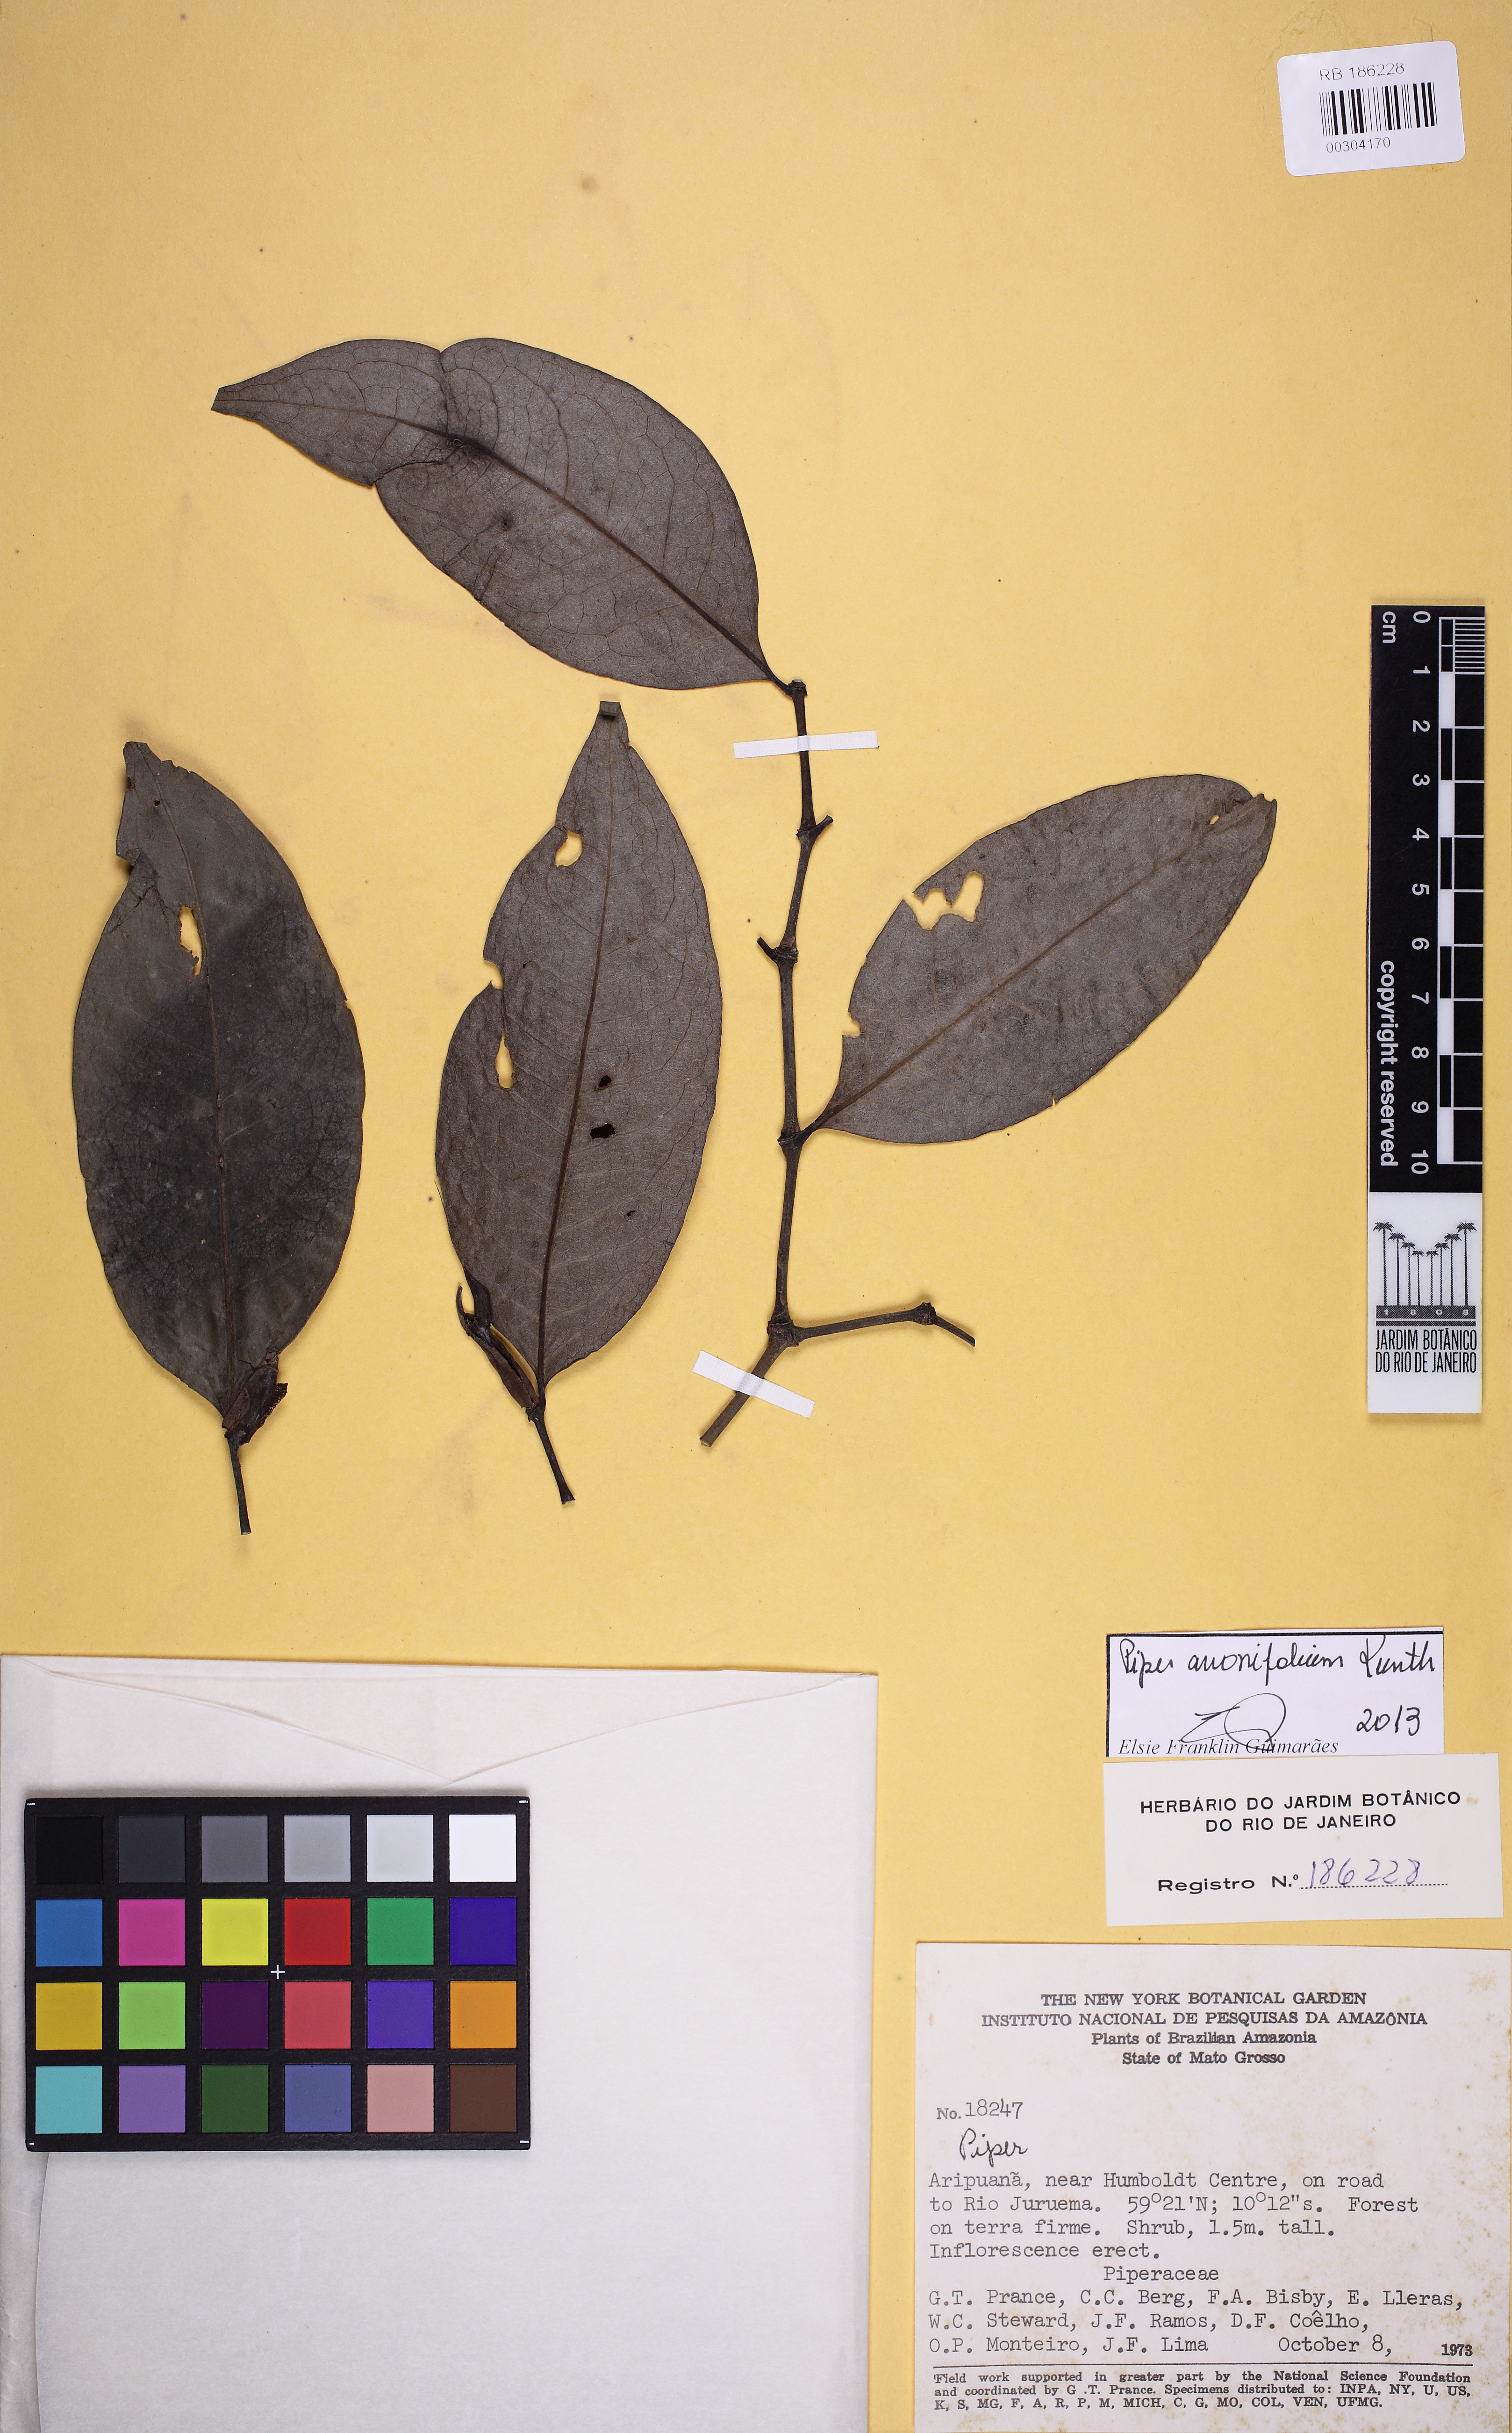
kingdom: Plantae
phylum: Tracheophyta
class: Magnoliopsida
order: Piperales
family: Piperaceae
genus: Piper
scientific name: Piper anonifolium
